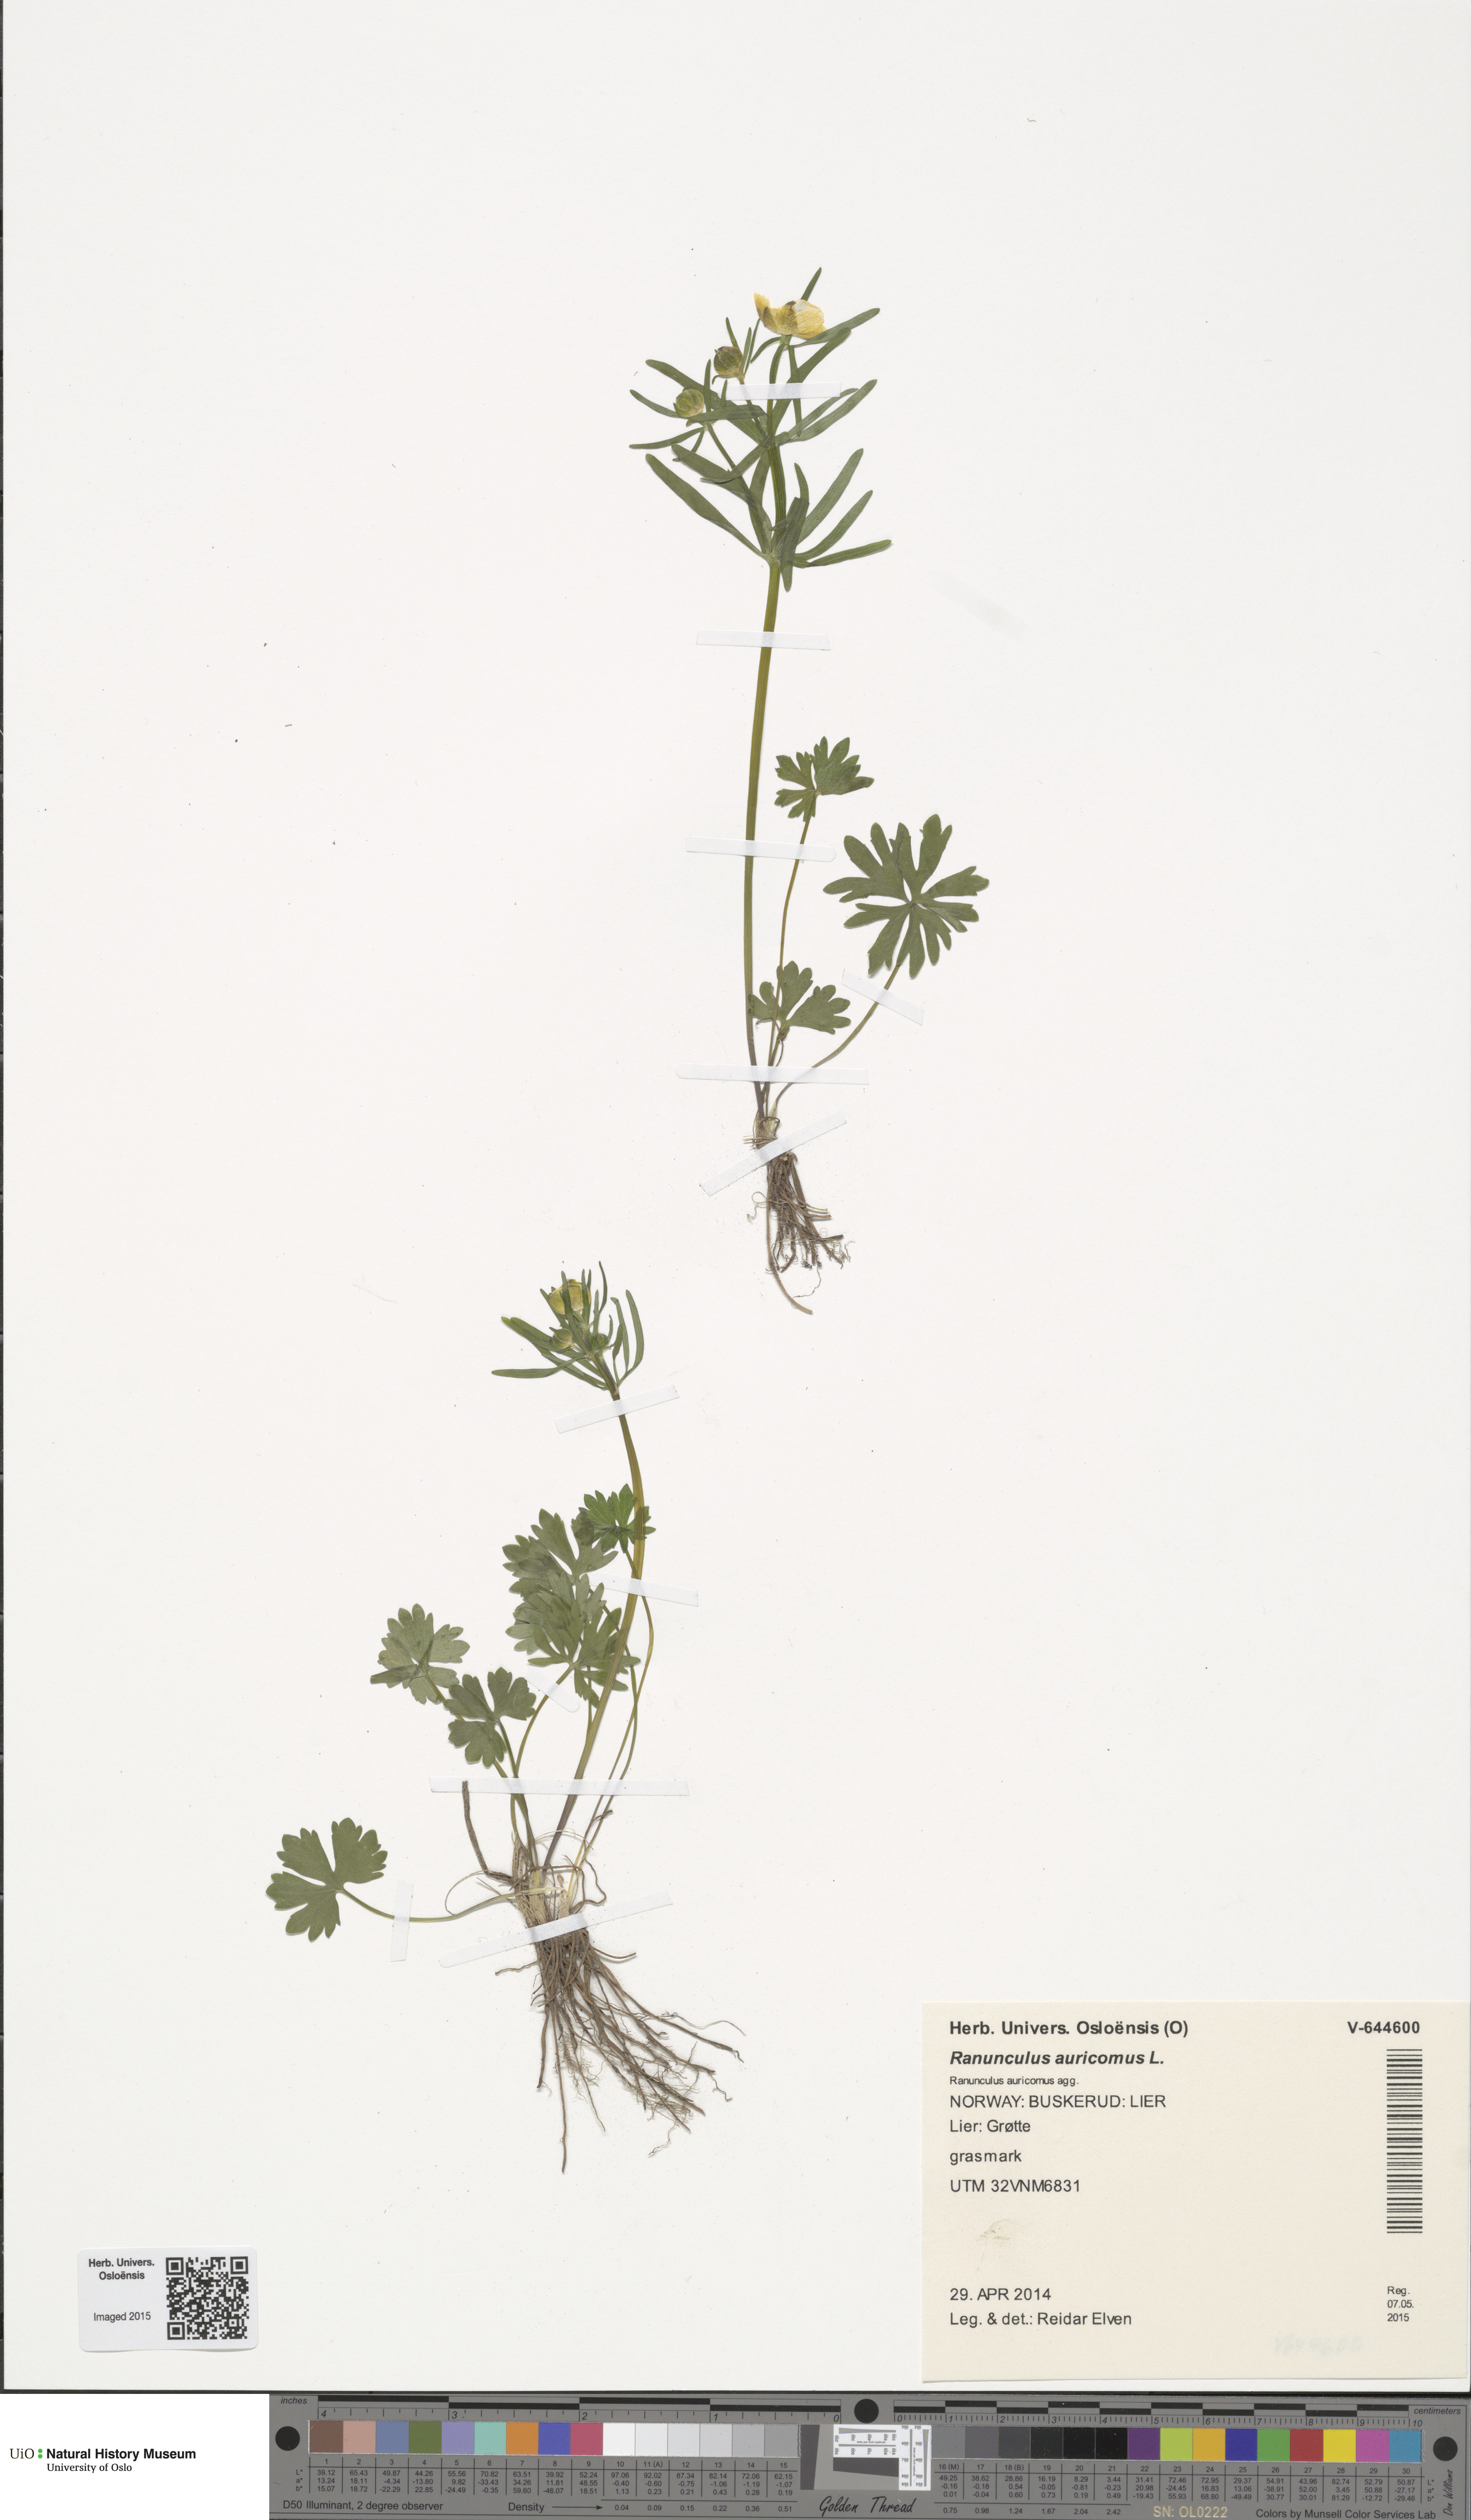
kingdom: Plantae
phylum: Tracheophyta
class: Magnoliopsida
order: Ranunculales
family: Ranunculaceae
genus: Ranunculus
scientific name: Ranunculus auricomus
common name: Goldilocks buttercup
